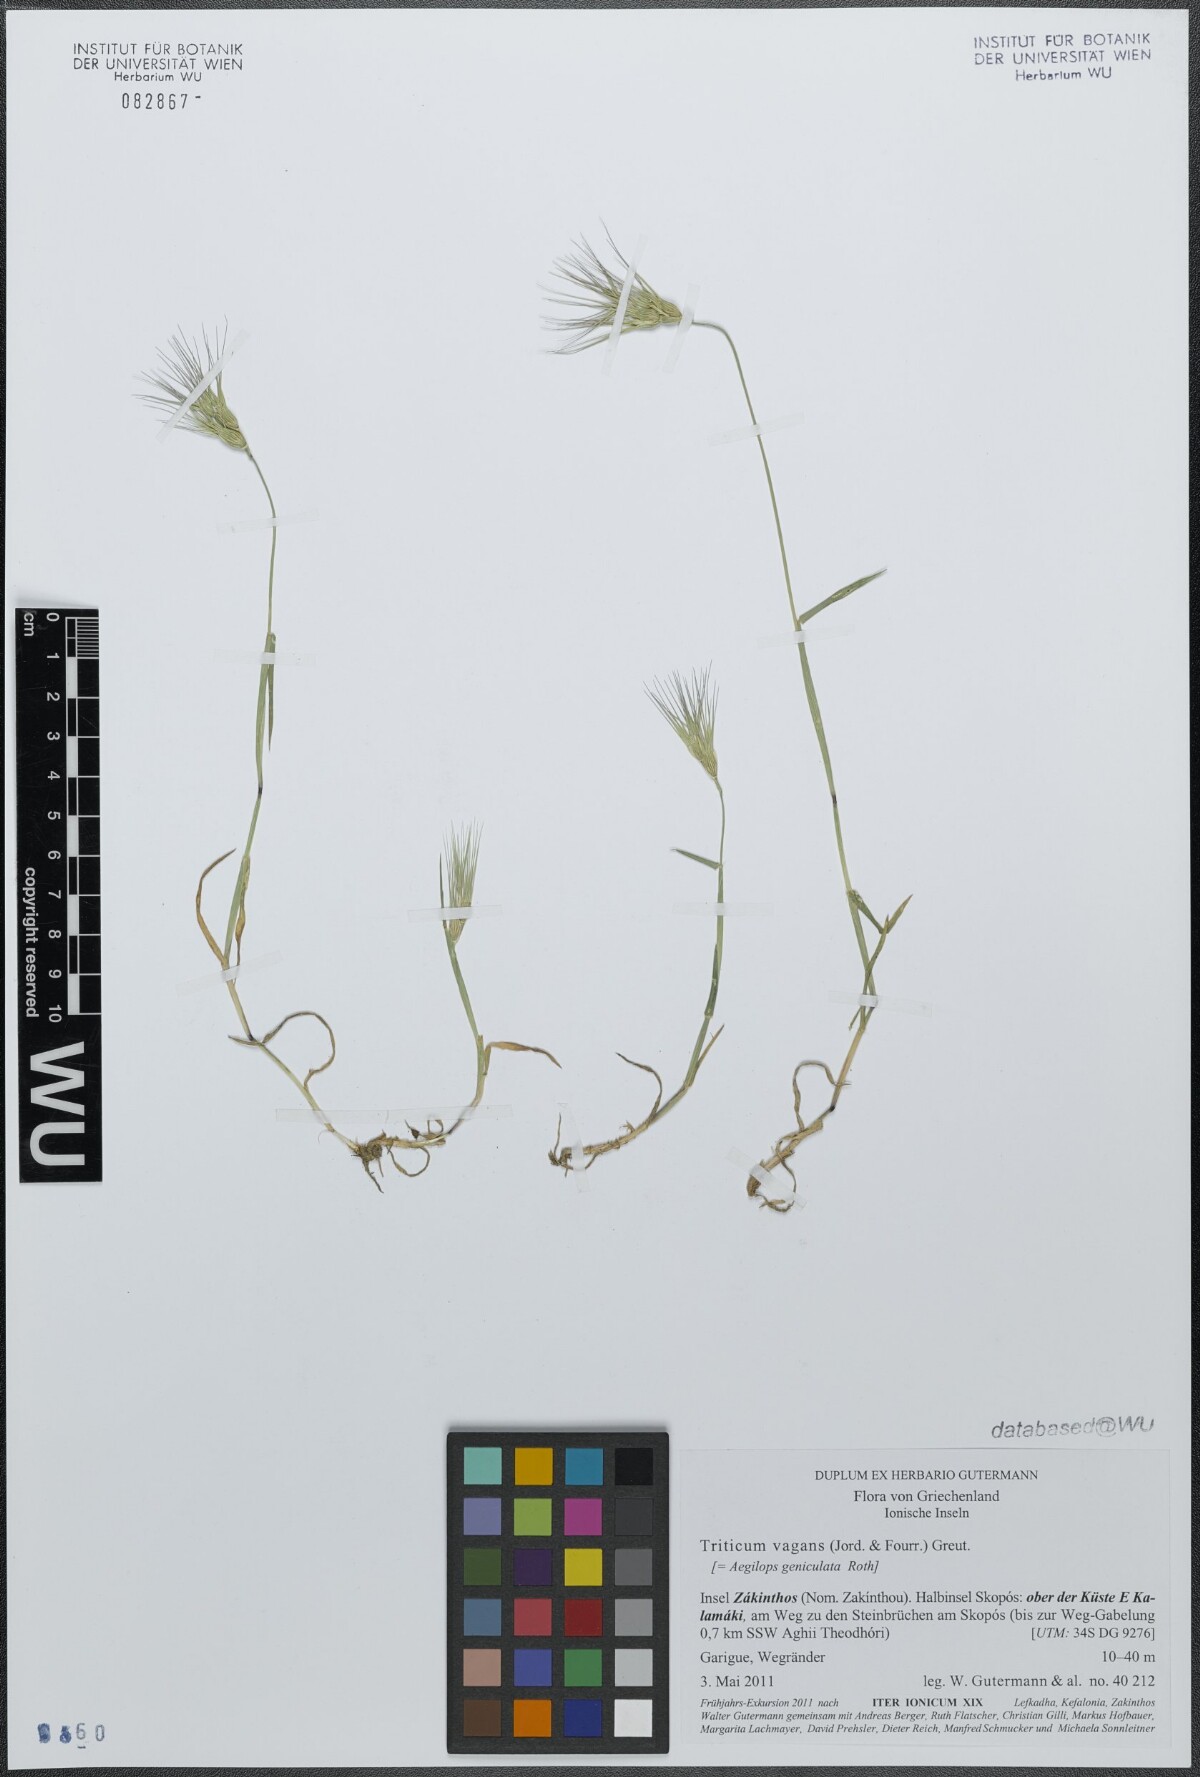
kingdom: Plantae
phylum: Tracheophyta
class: Liliopsida
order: Poales
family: Poaceae
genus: Aegilops
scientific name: Aegilops geniculata
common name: Ovate goat grass
